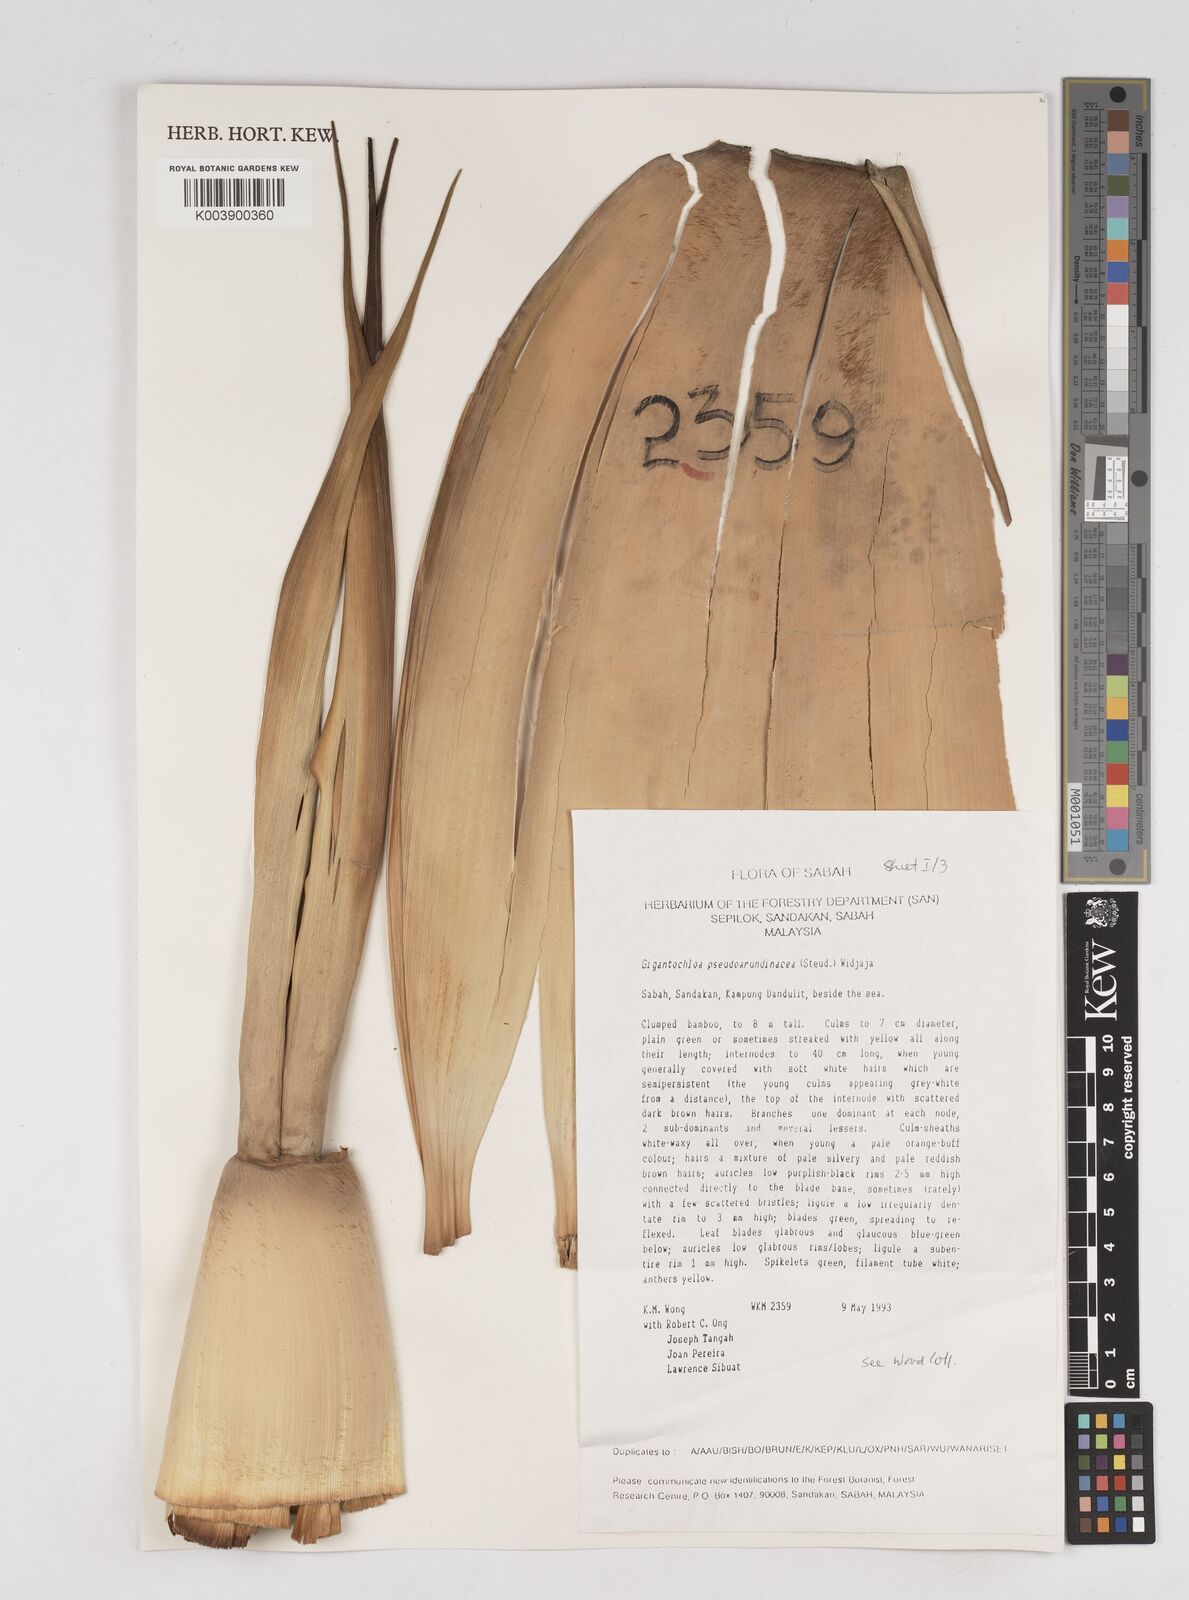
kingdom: Plantae
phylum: Tracheophyta
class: Liliopsida
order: Poales
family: Poaceae
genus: Gigantochloa
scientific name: Gigantochloa verticillata
